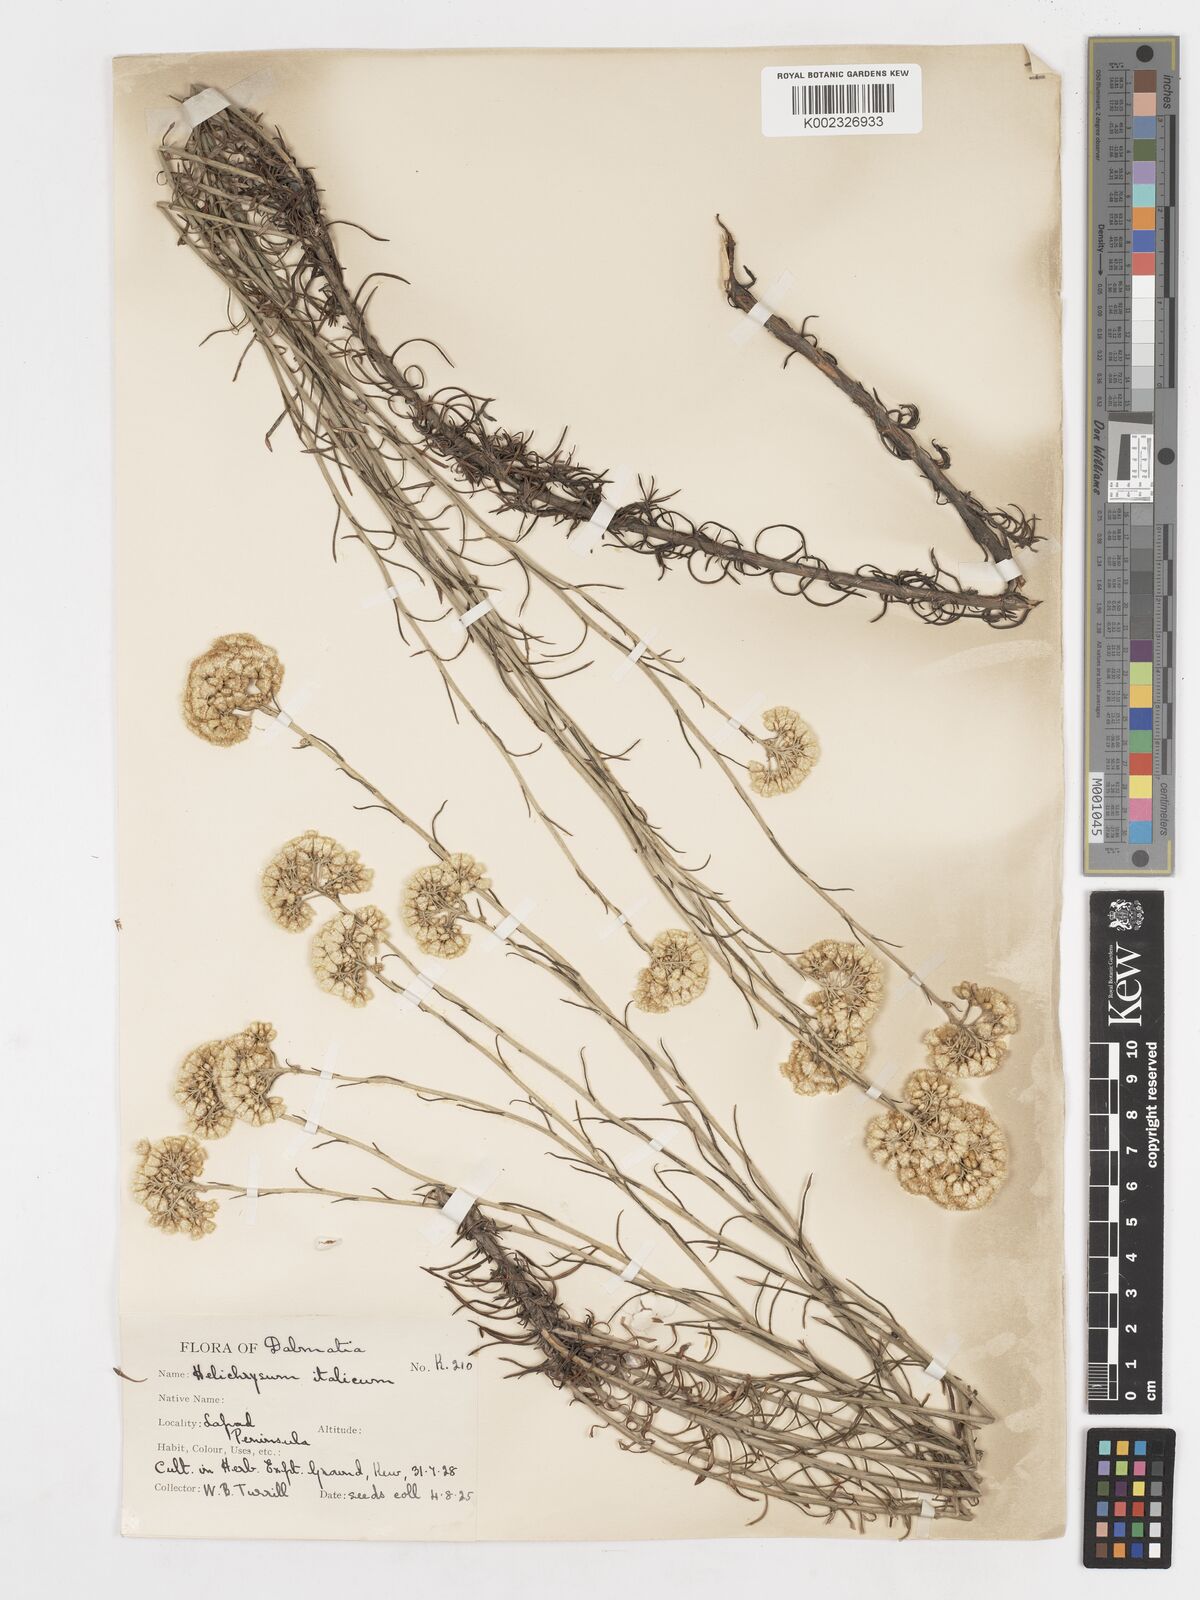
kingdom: Plantae
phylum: Tracheophyta
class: Magnoliopsida
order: Asterales
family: Asteraceae
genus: Helichrysum
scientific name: Helichrysum italicum
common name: Curryplant
